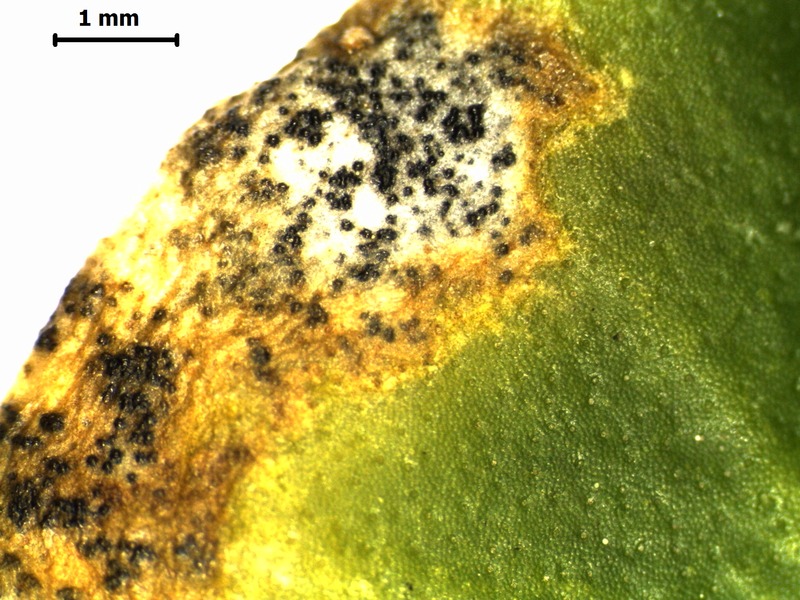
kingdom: Fungi
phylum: Ascomycota
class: Dothideomycetes
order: Capnodiales
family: Cladosporiaceae
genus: Cladosporium
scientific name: Cladosporium soldanellae
